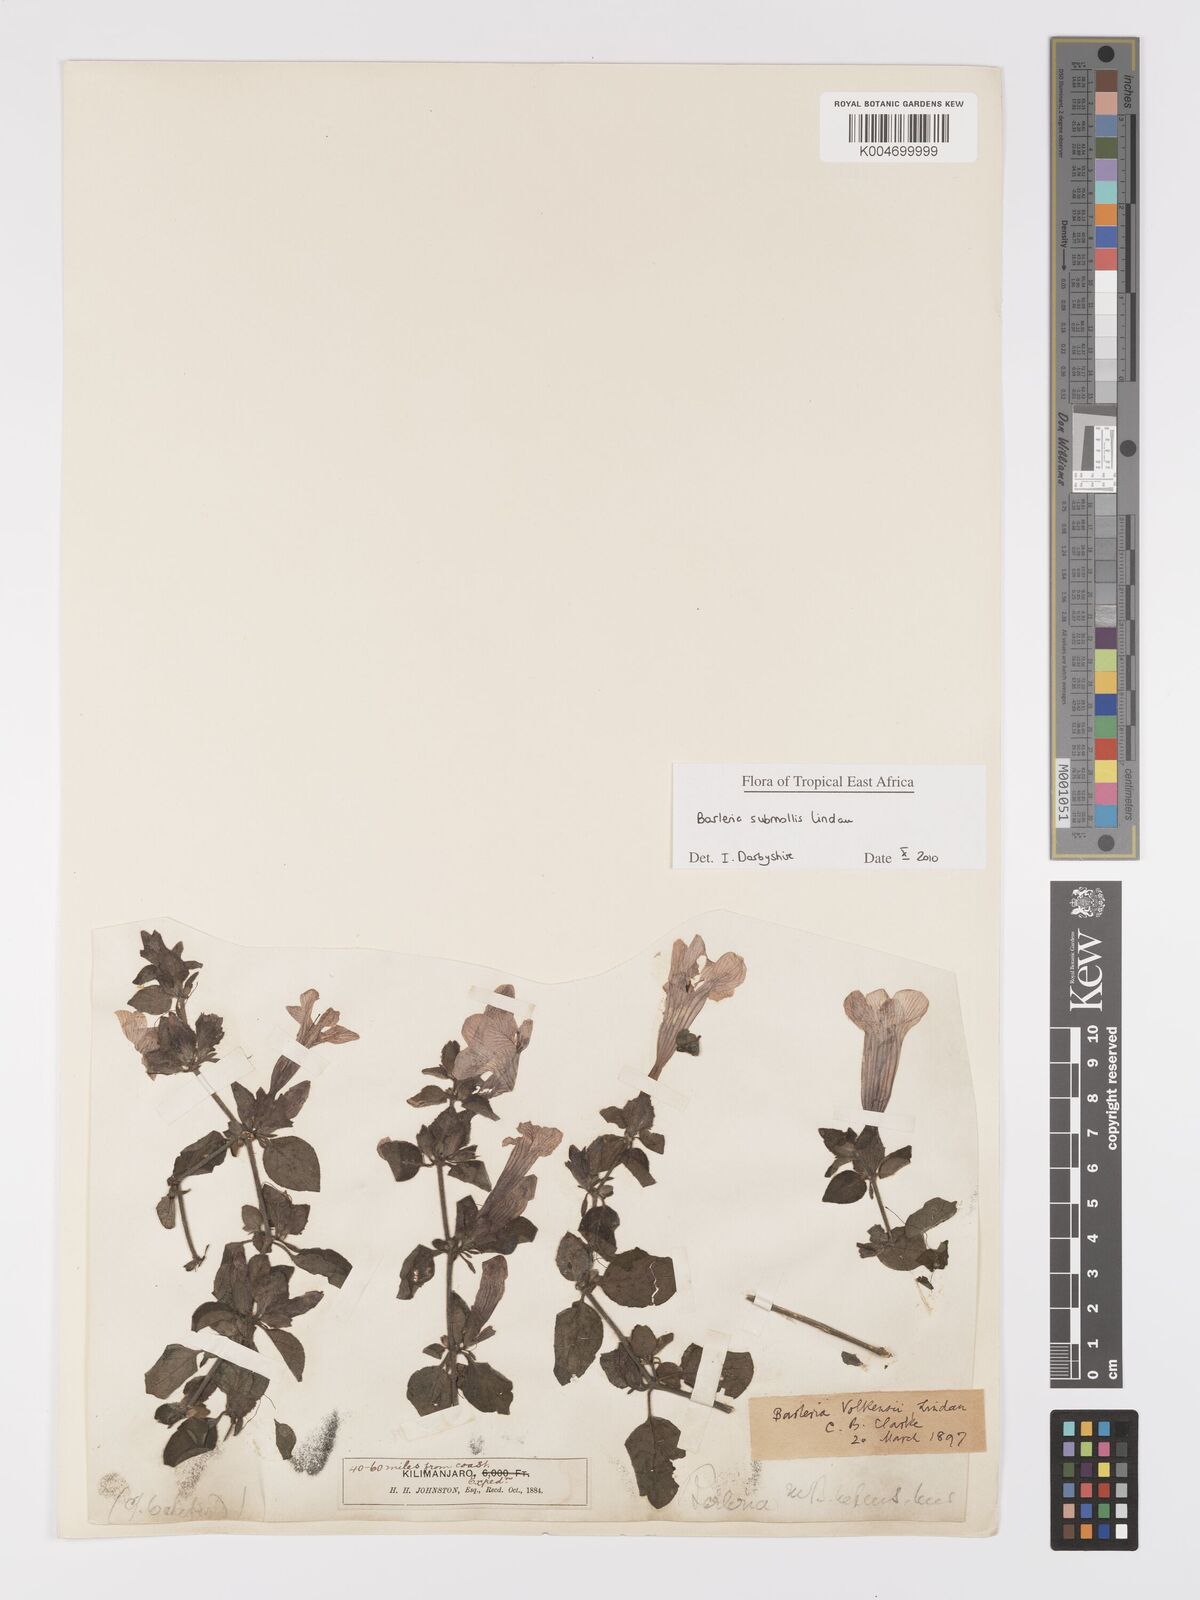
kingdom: Plantae
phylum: Tracheophyta
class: Magnoliopsida
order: Lamiales
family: Acanthaceae
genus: Barleria
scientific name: Barleria submollis
